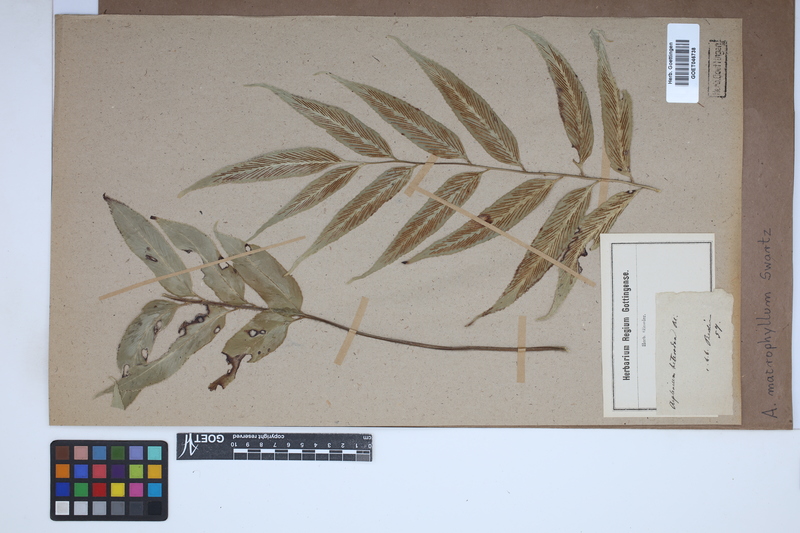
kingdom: Plantae
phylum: Tracheophyta
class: Polypodiopsida
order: Polypodiales
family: Aspleniaceae
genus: Asplenium
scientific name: Asplenium macrophyllum
